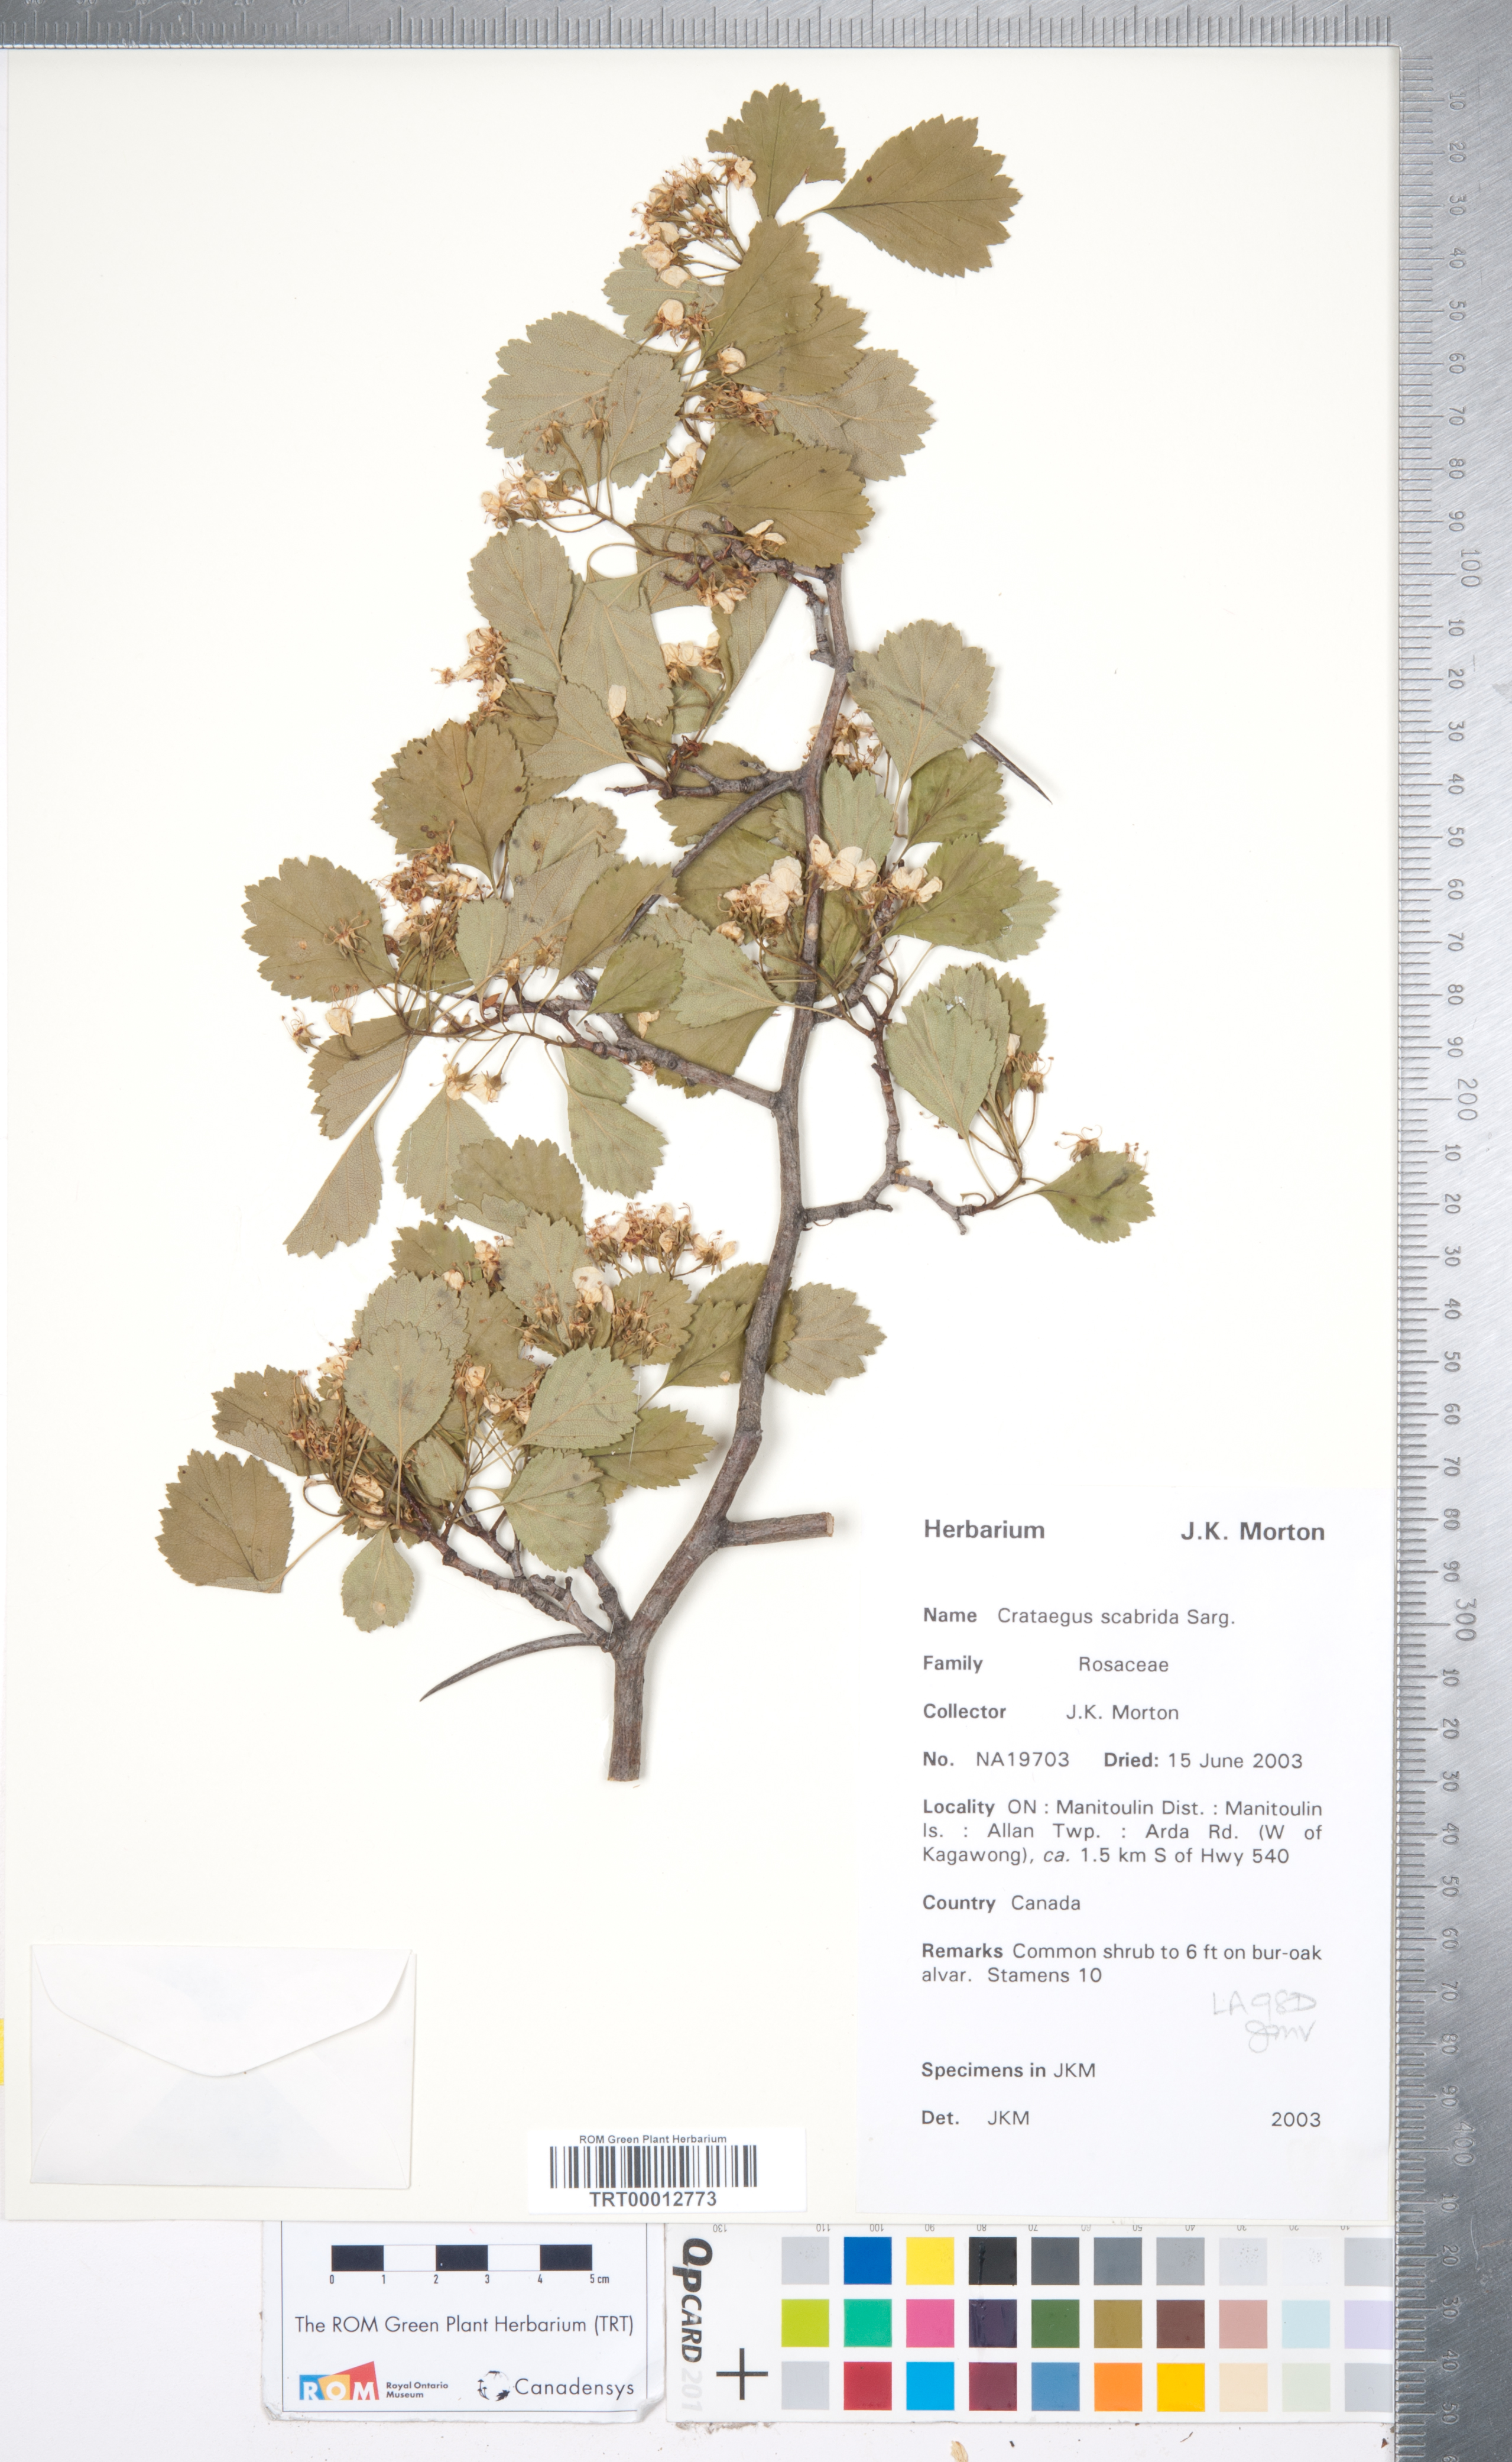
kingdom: Plantae
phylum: Tracheophyta
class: Magnoliopsida
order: Rosales
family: Rosaceae
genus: Crataegus
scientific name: Crataegus scabrida
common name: Rough hawthorn
